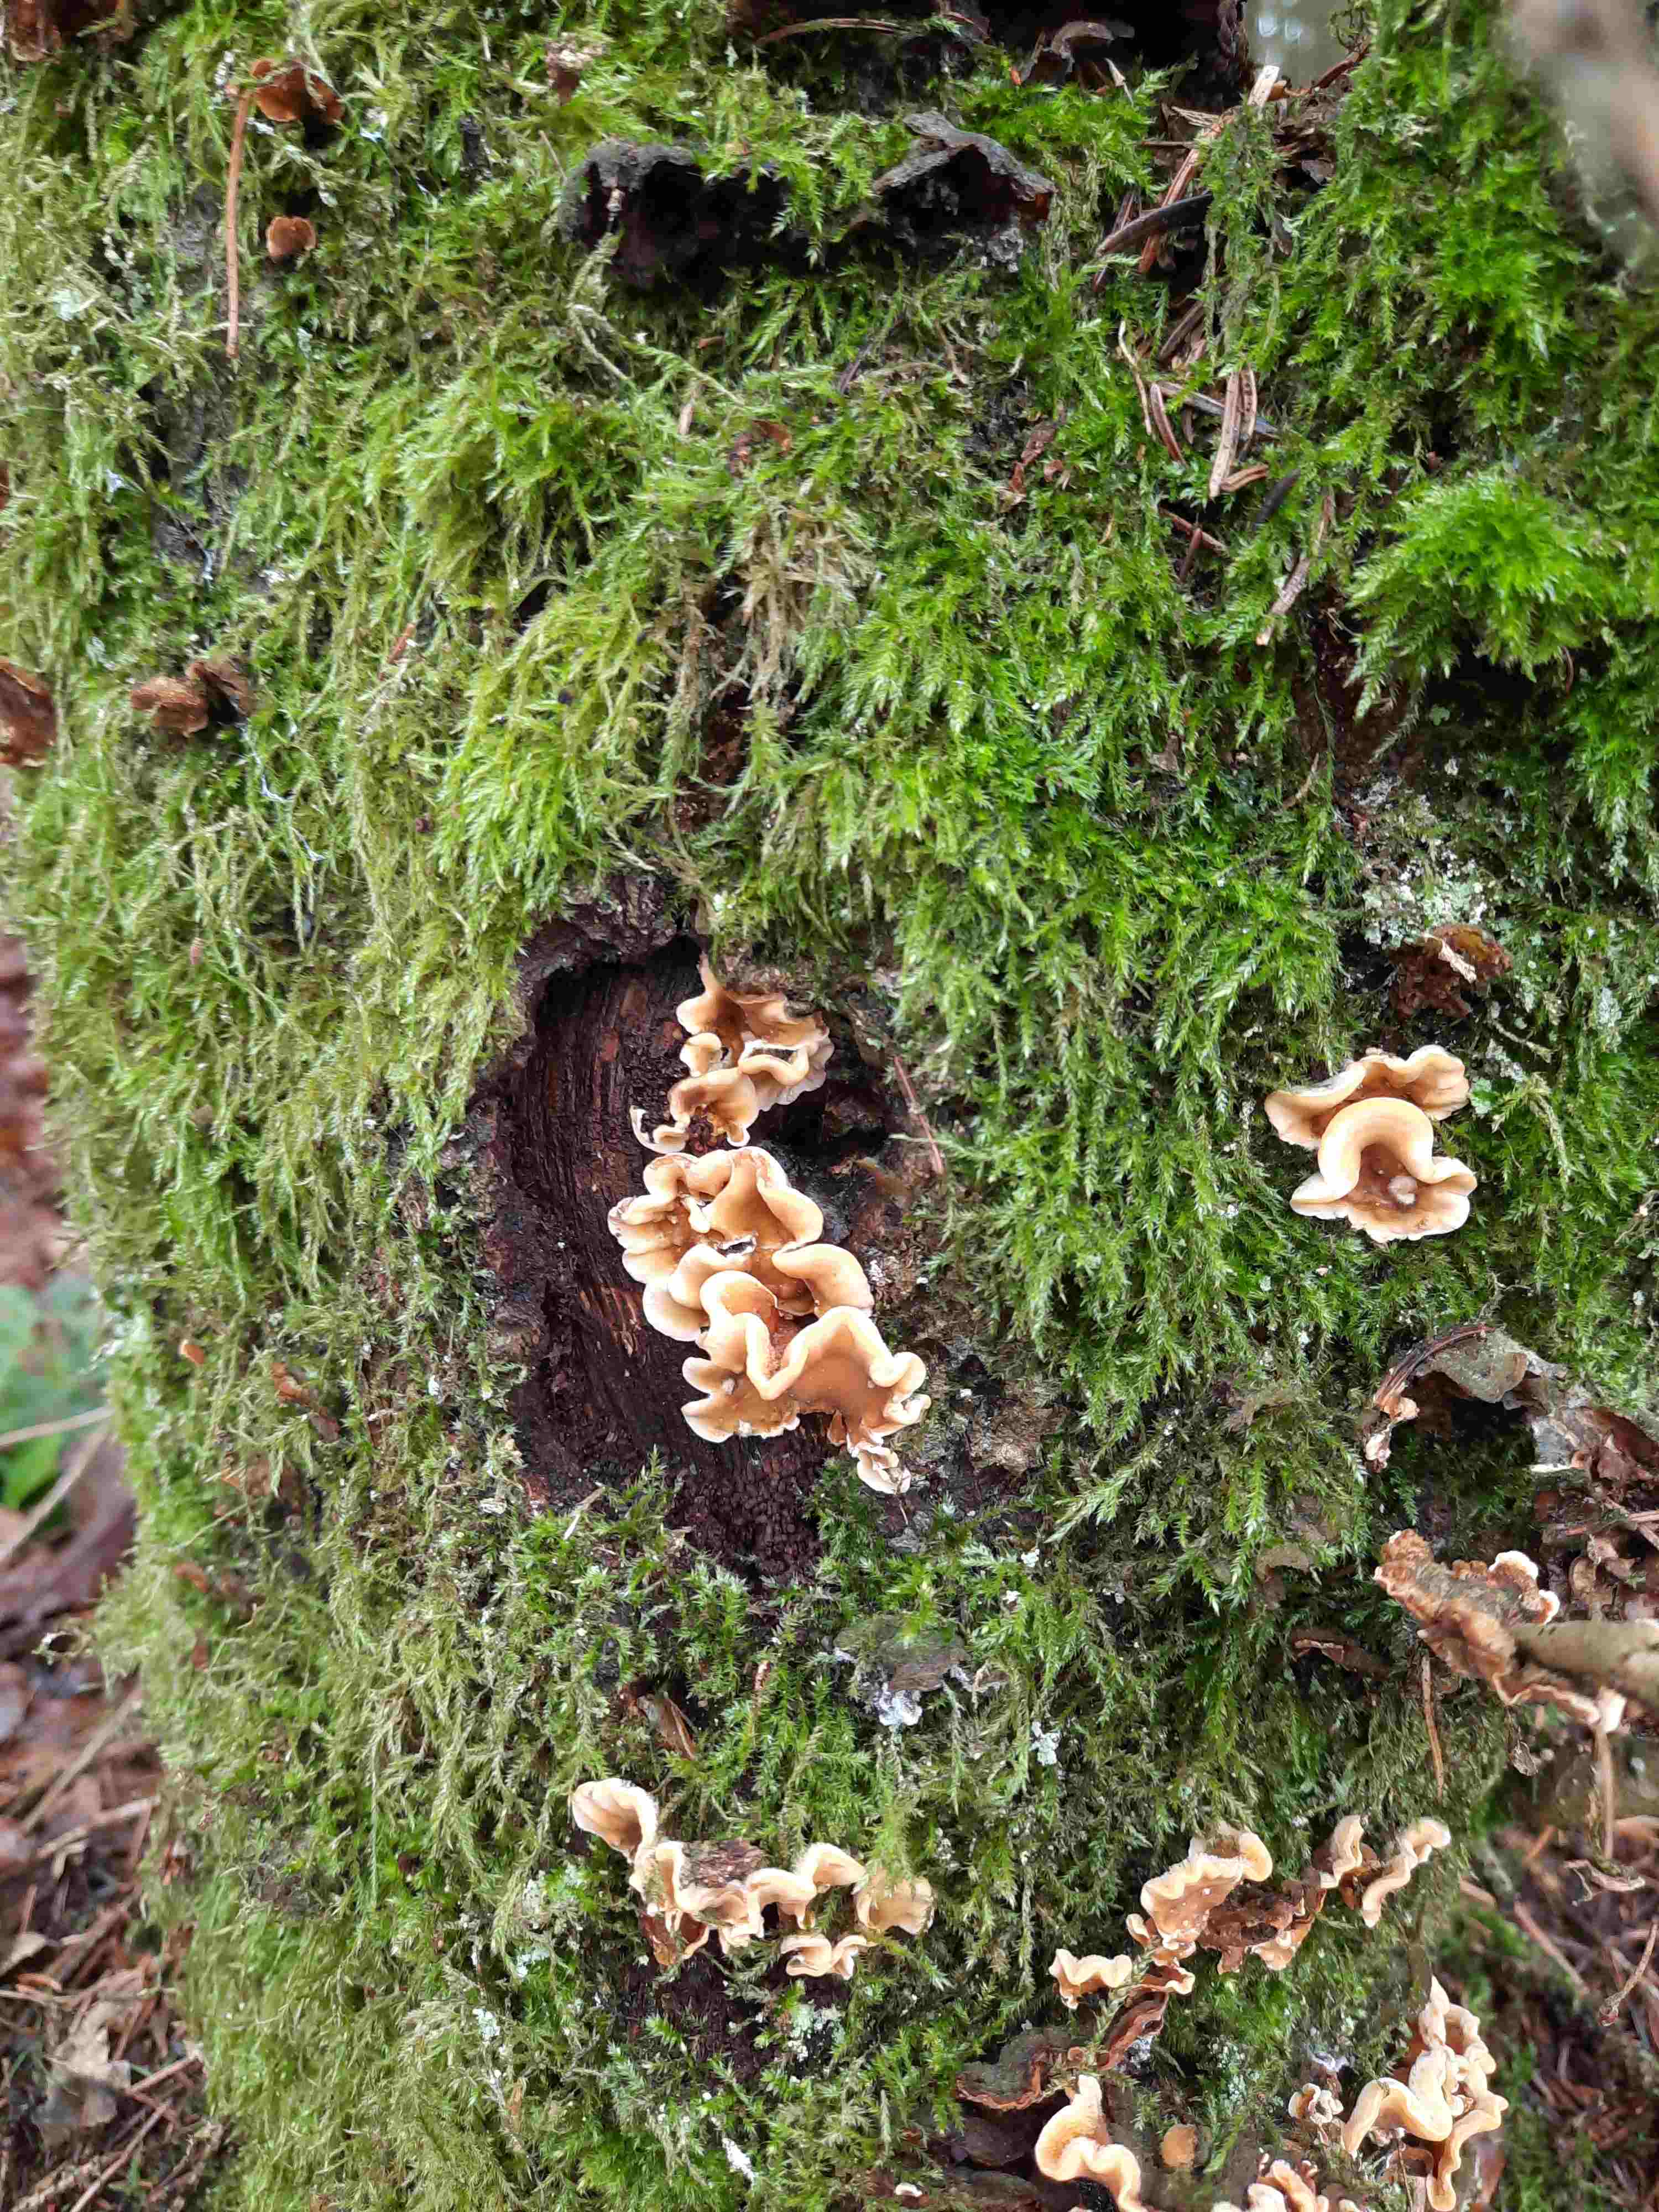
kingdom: Fungi
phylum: Basidiomycota
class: Agaricomycetes
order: Russulales
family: Stereaceae
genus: Stereum
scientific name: Stereum hirsutum
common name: håret lædersvamp
